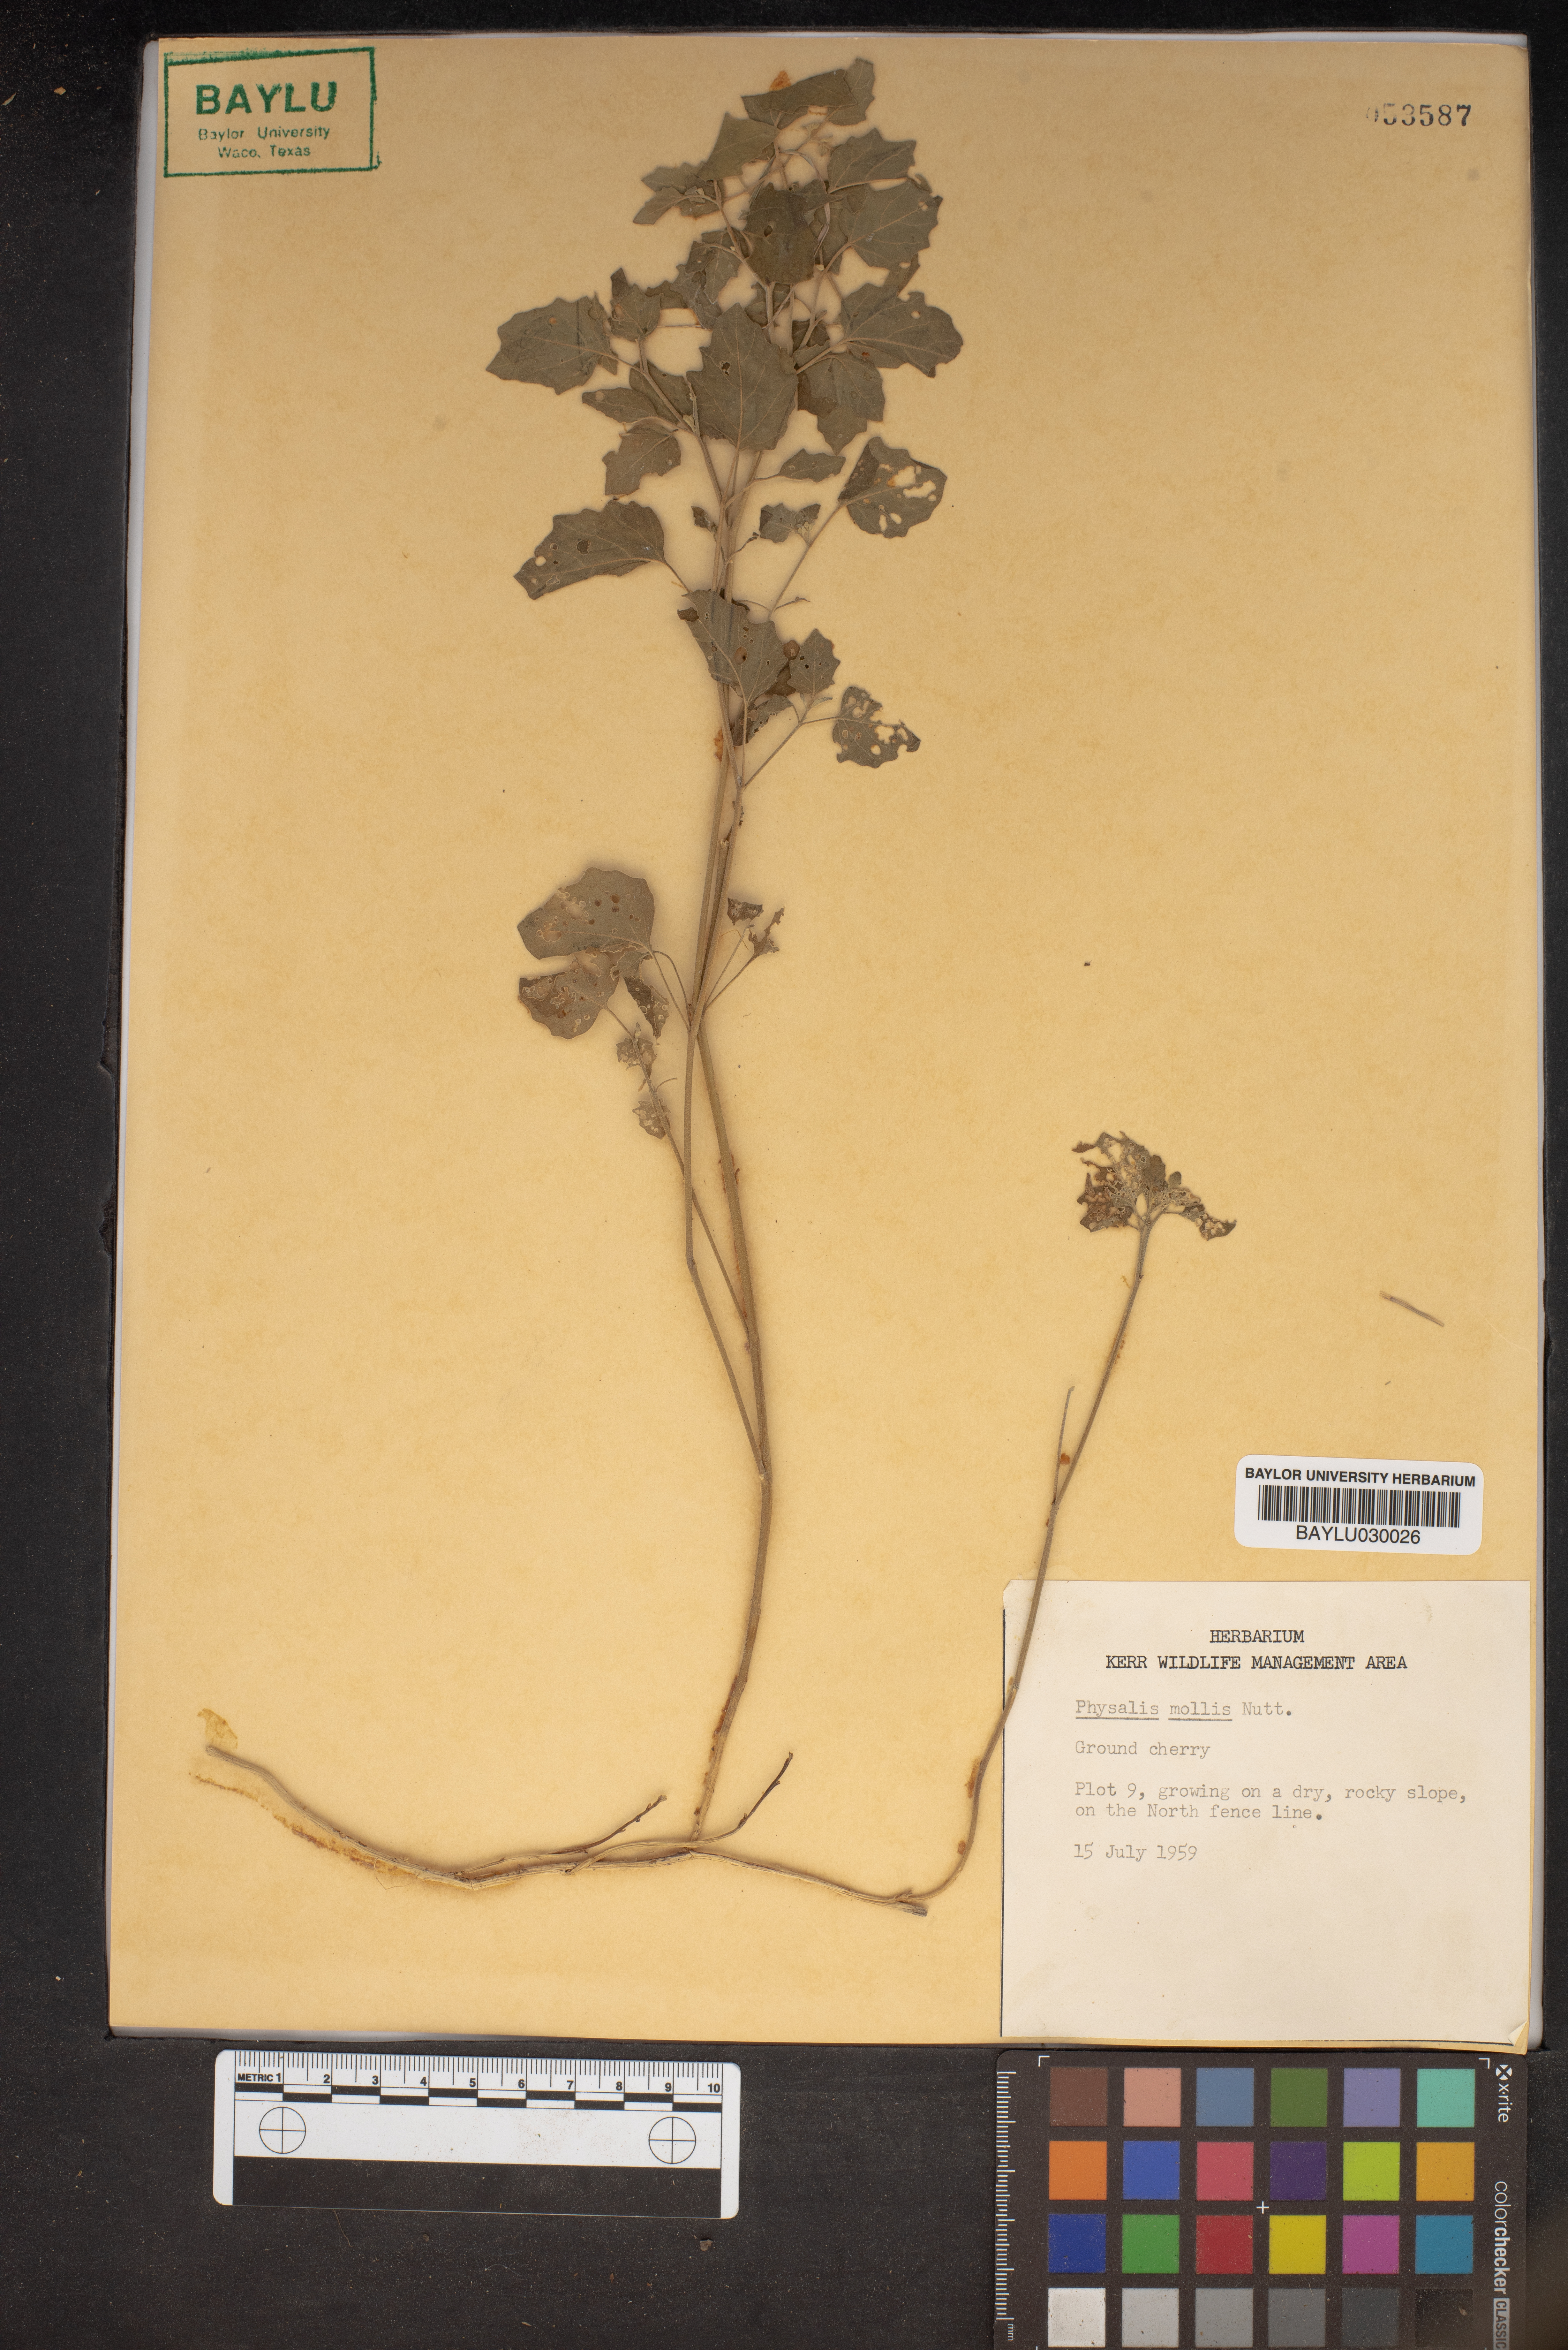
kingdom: Plantae
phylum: Tracheophyta
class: Magnoliopsida
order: Solanales
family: Solanaceae
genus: Physalis
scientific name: Physalis mollis
